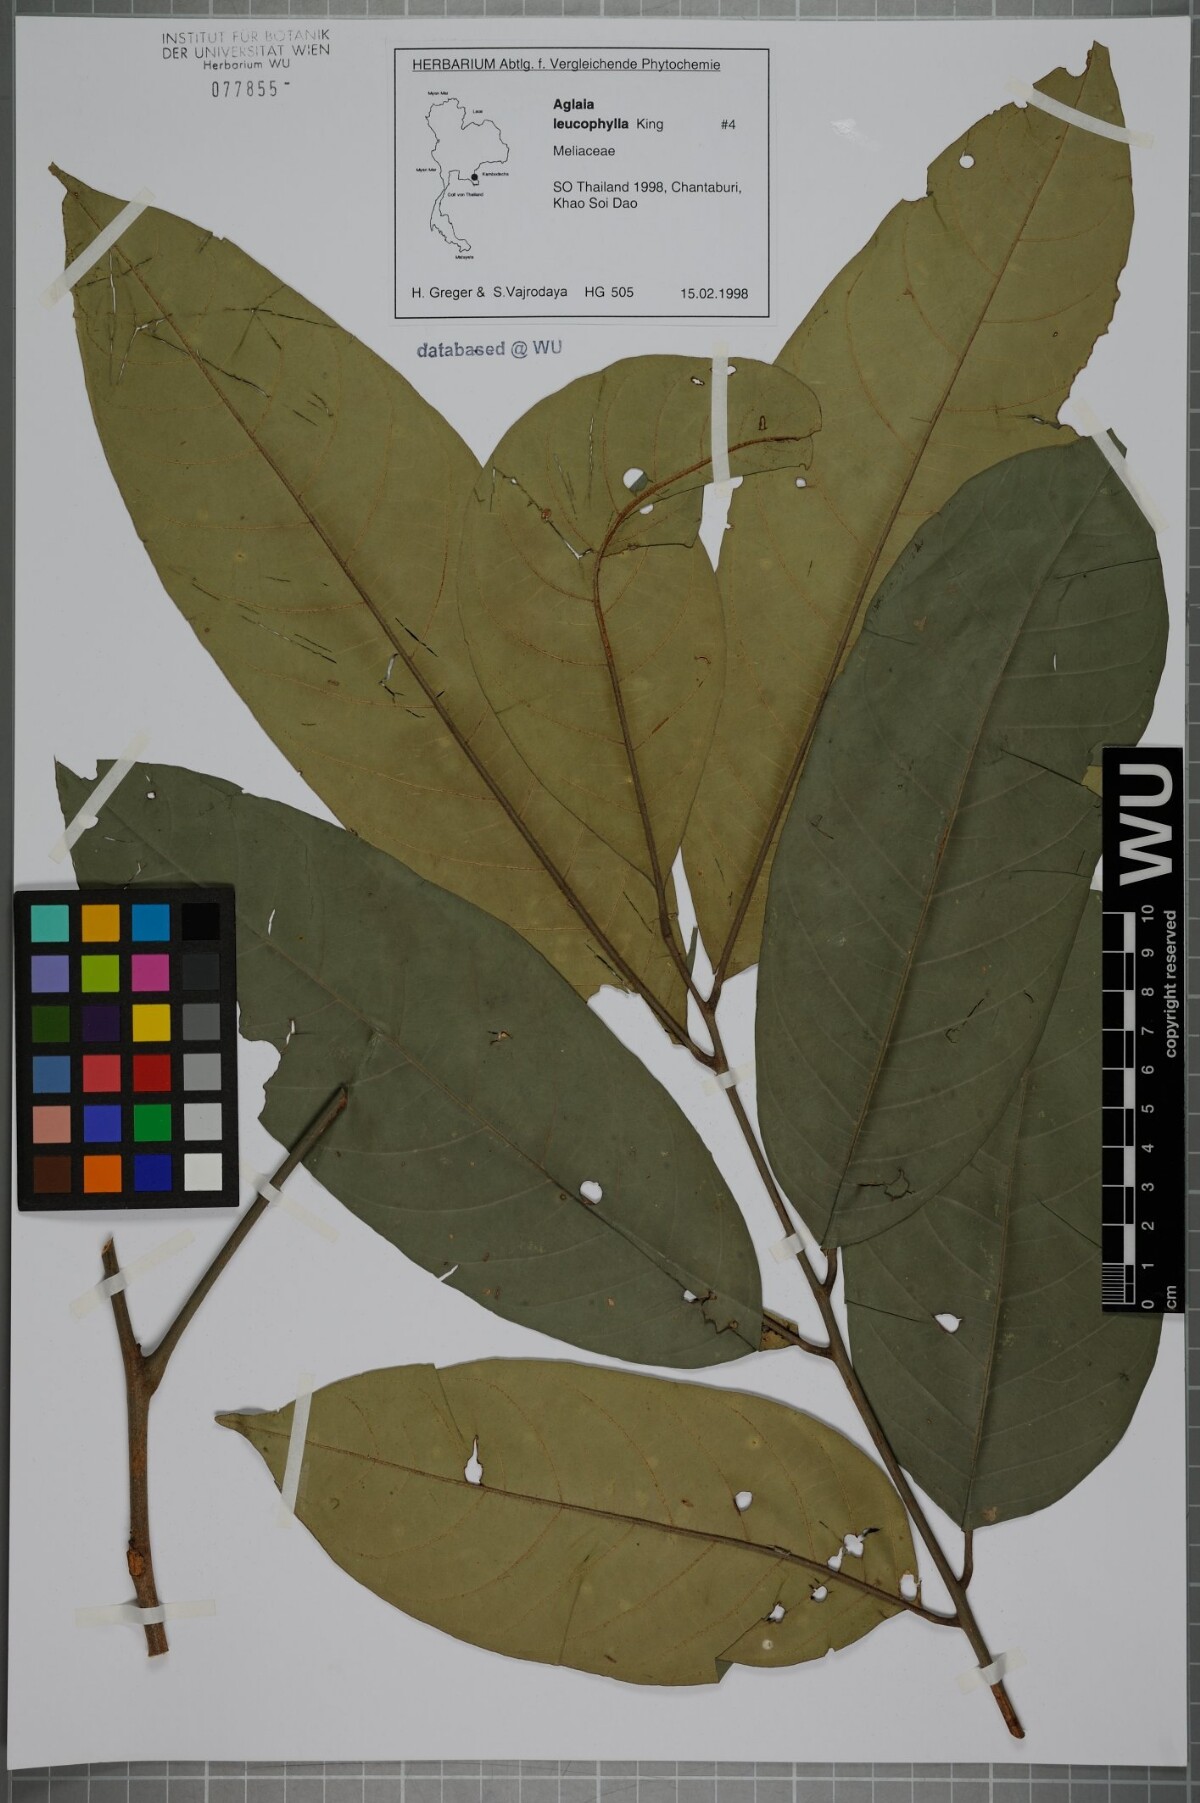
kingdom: Plantae
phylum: Tracheophyta
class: Magnoliopsida
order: Sapindales
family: Meliaceae
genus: Aglaia
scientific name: Aglaia leucophylla
